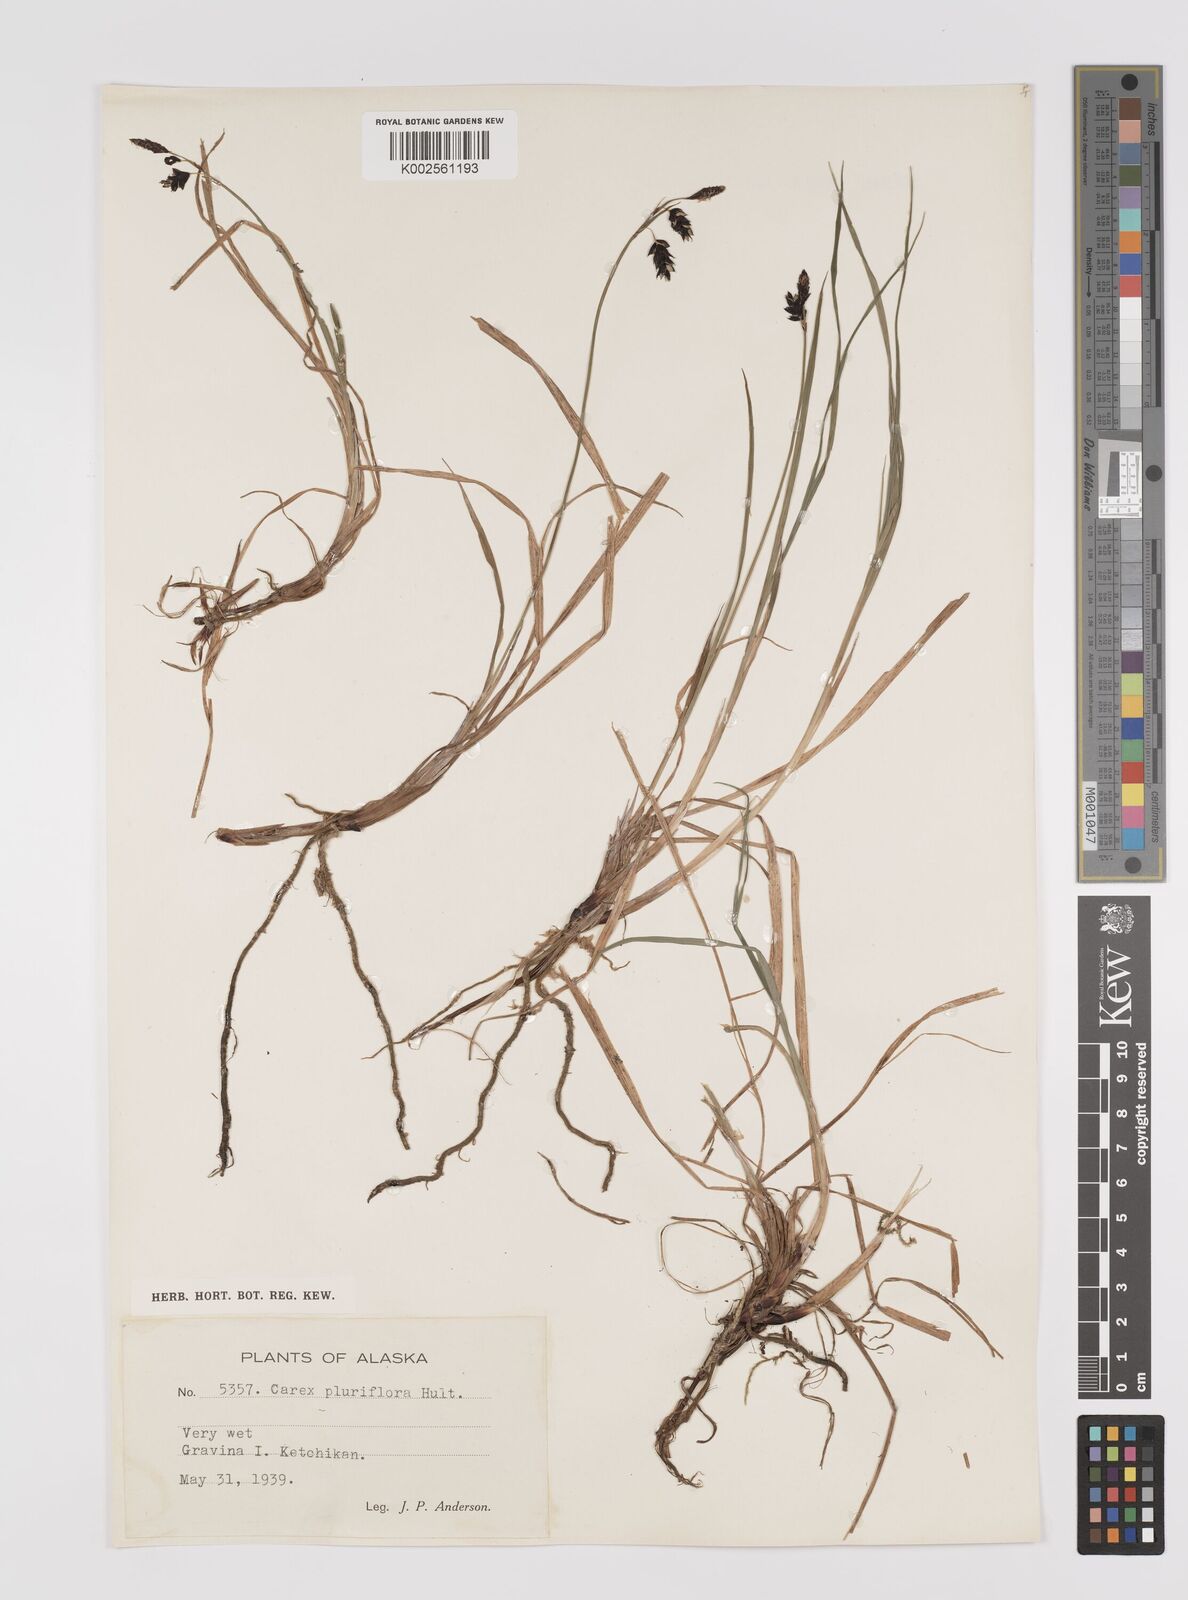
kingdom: Plantae
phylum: Tracheophyta
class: Liliopsida
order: Poales
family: Cyperaceae
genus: Carex
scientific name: Carex pluriflora
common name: Manyflower sedge
